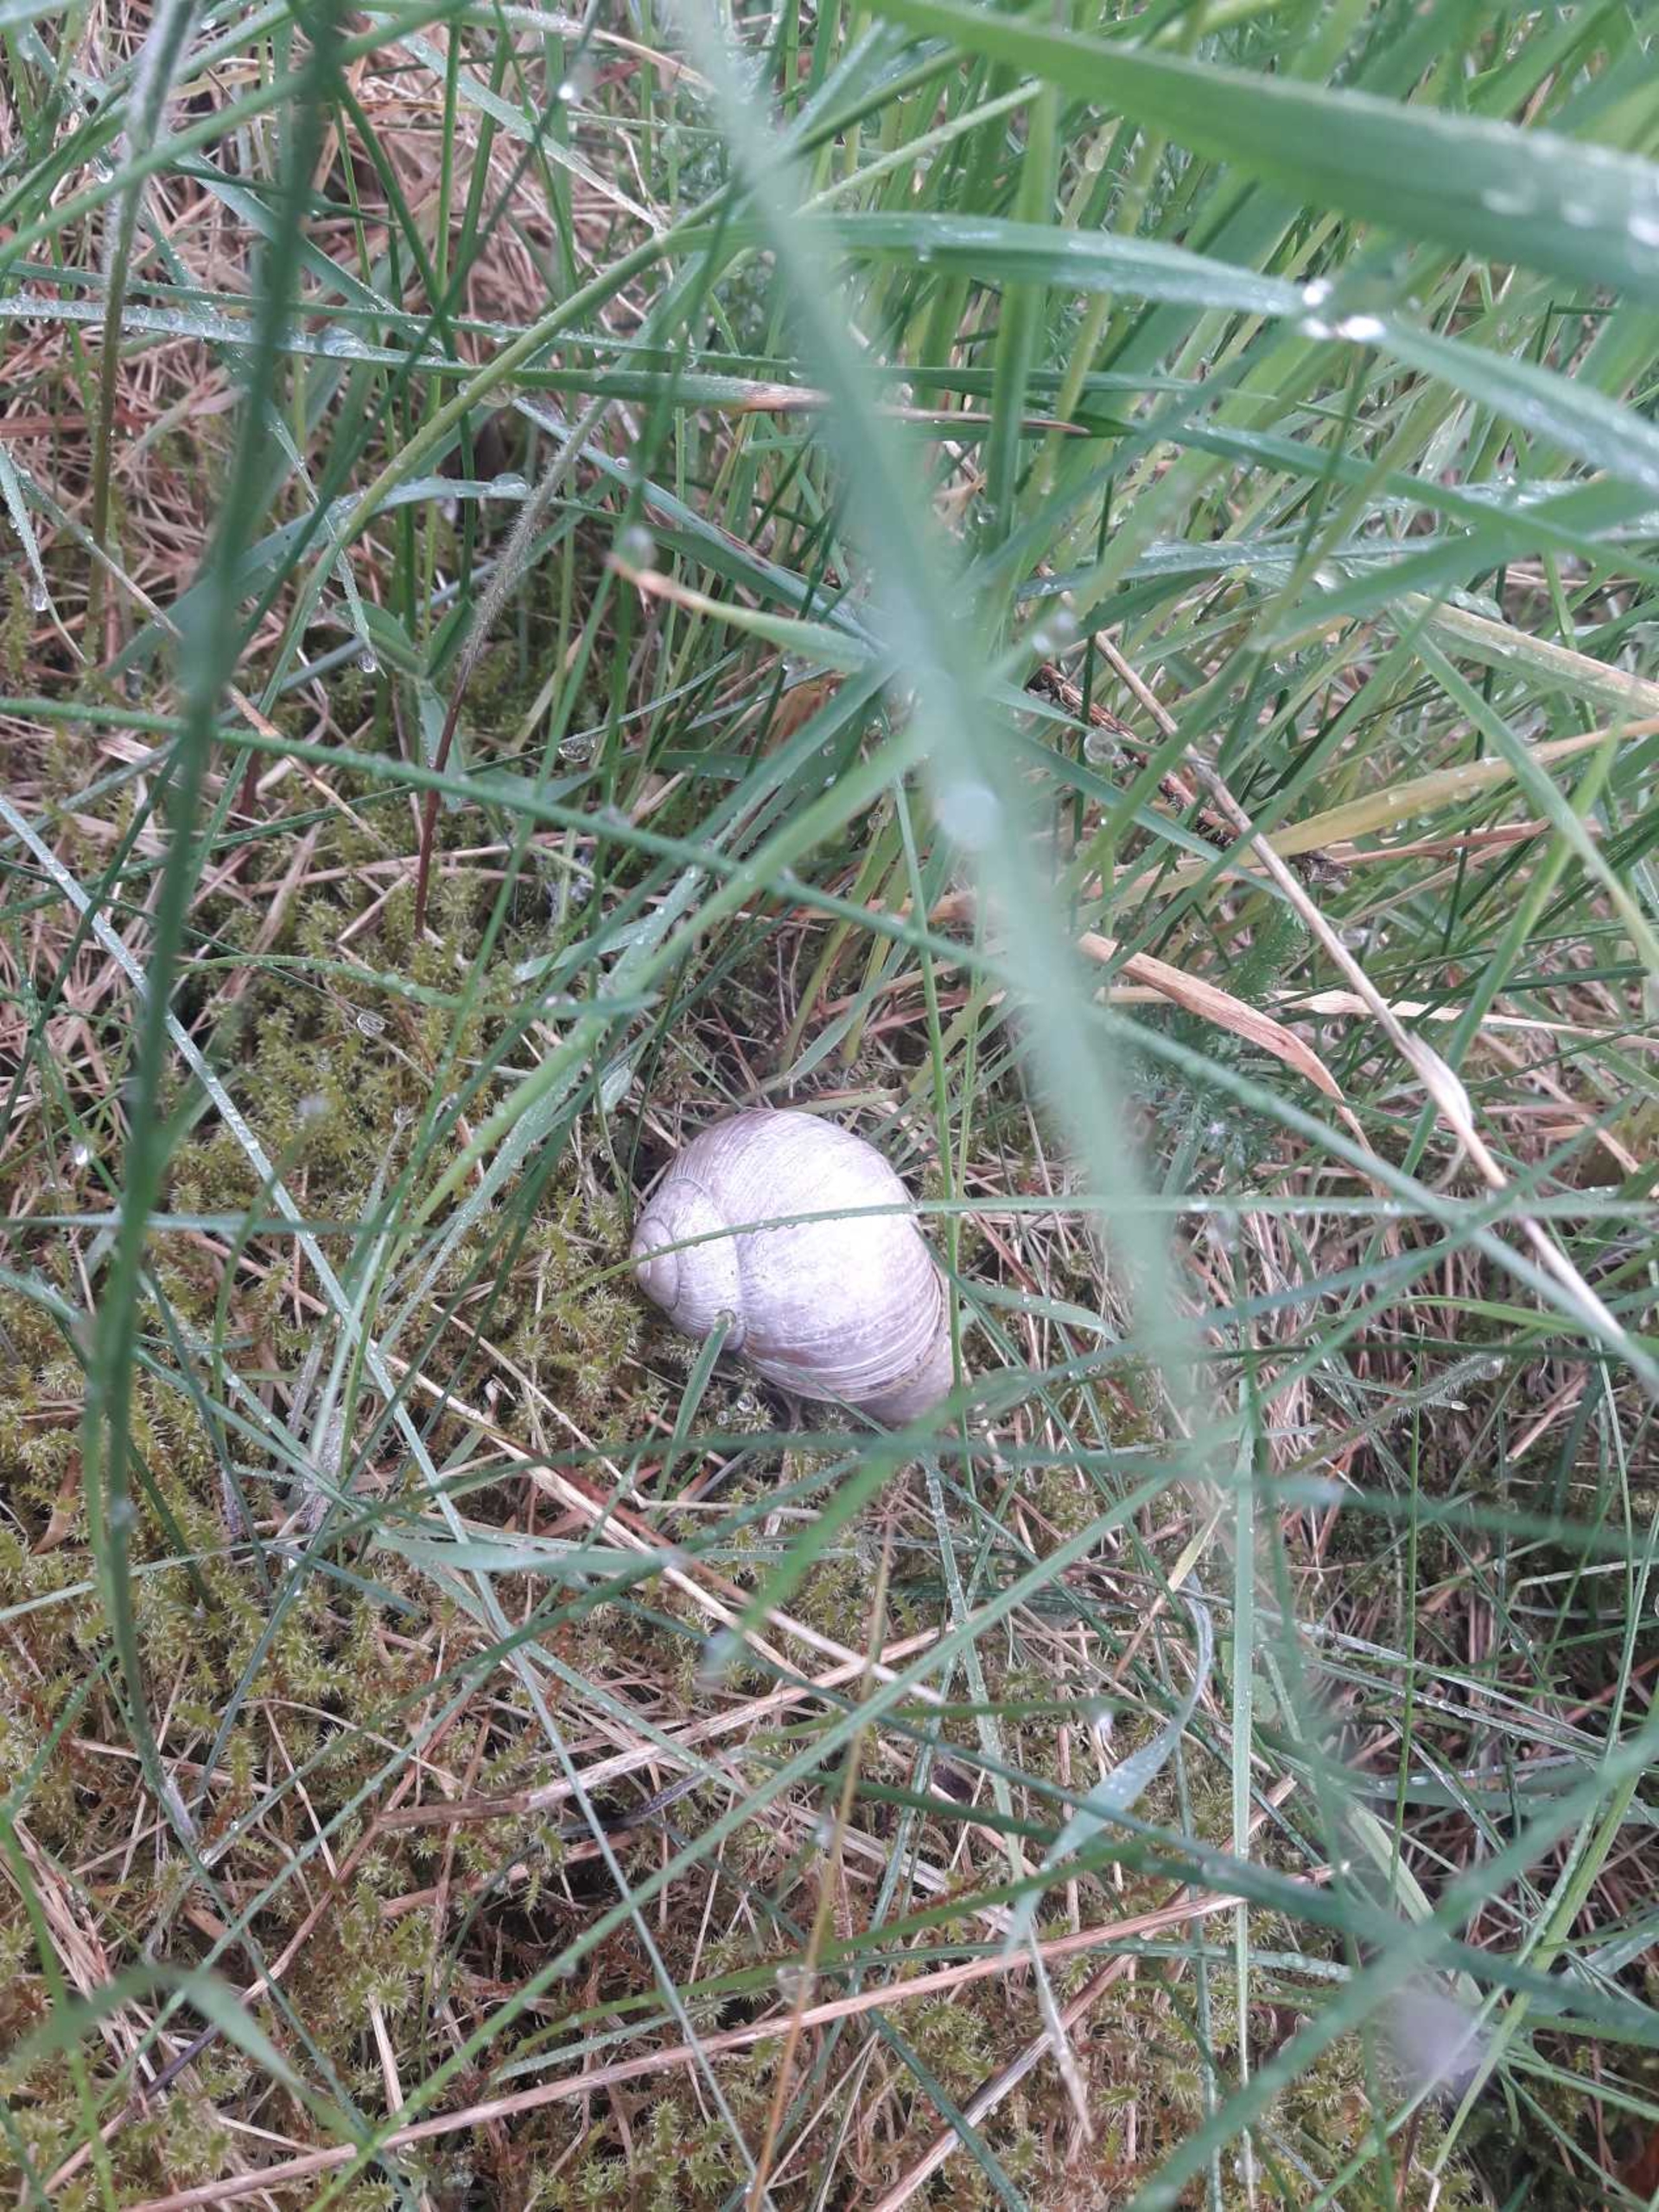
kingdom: Animalia
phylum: Mollusca
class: Gastropoda
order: Stylommatophora
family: Helicidae
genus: Helix
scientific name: Helix pomatia
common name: Vinbjergsnegl
